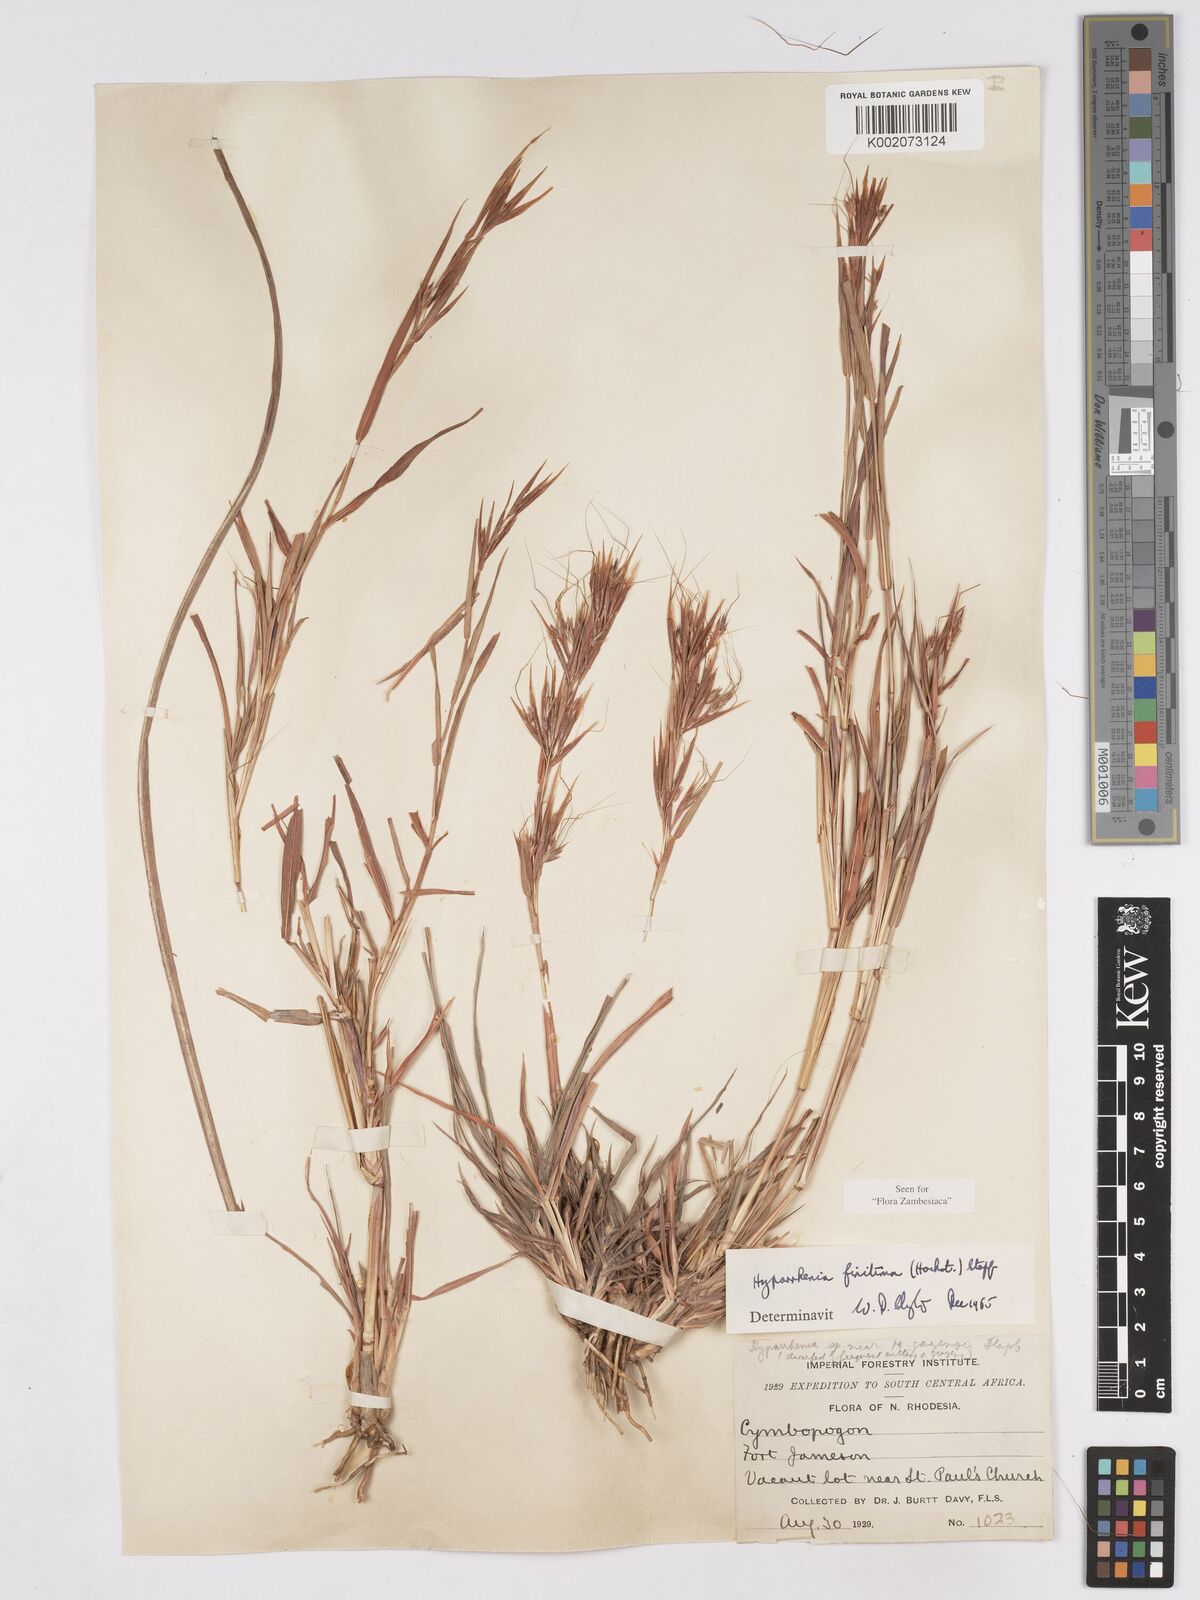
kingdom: Plantae
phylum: Tracheophyta
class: Liliopsida
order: Poales
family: Poaceae
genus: Hyparrhenia
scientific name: Hyparrhenia finitima
